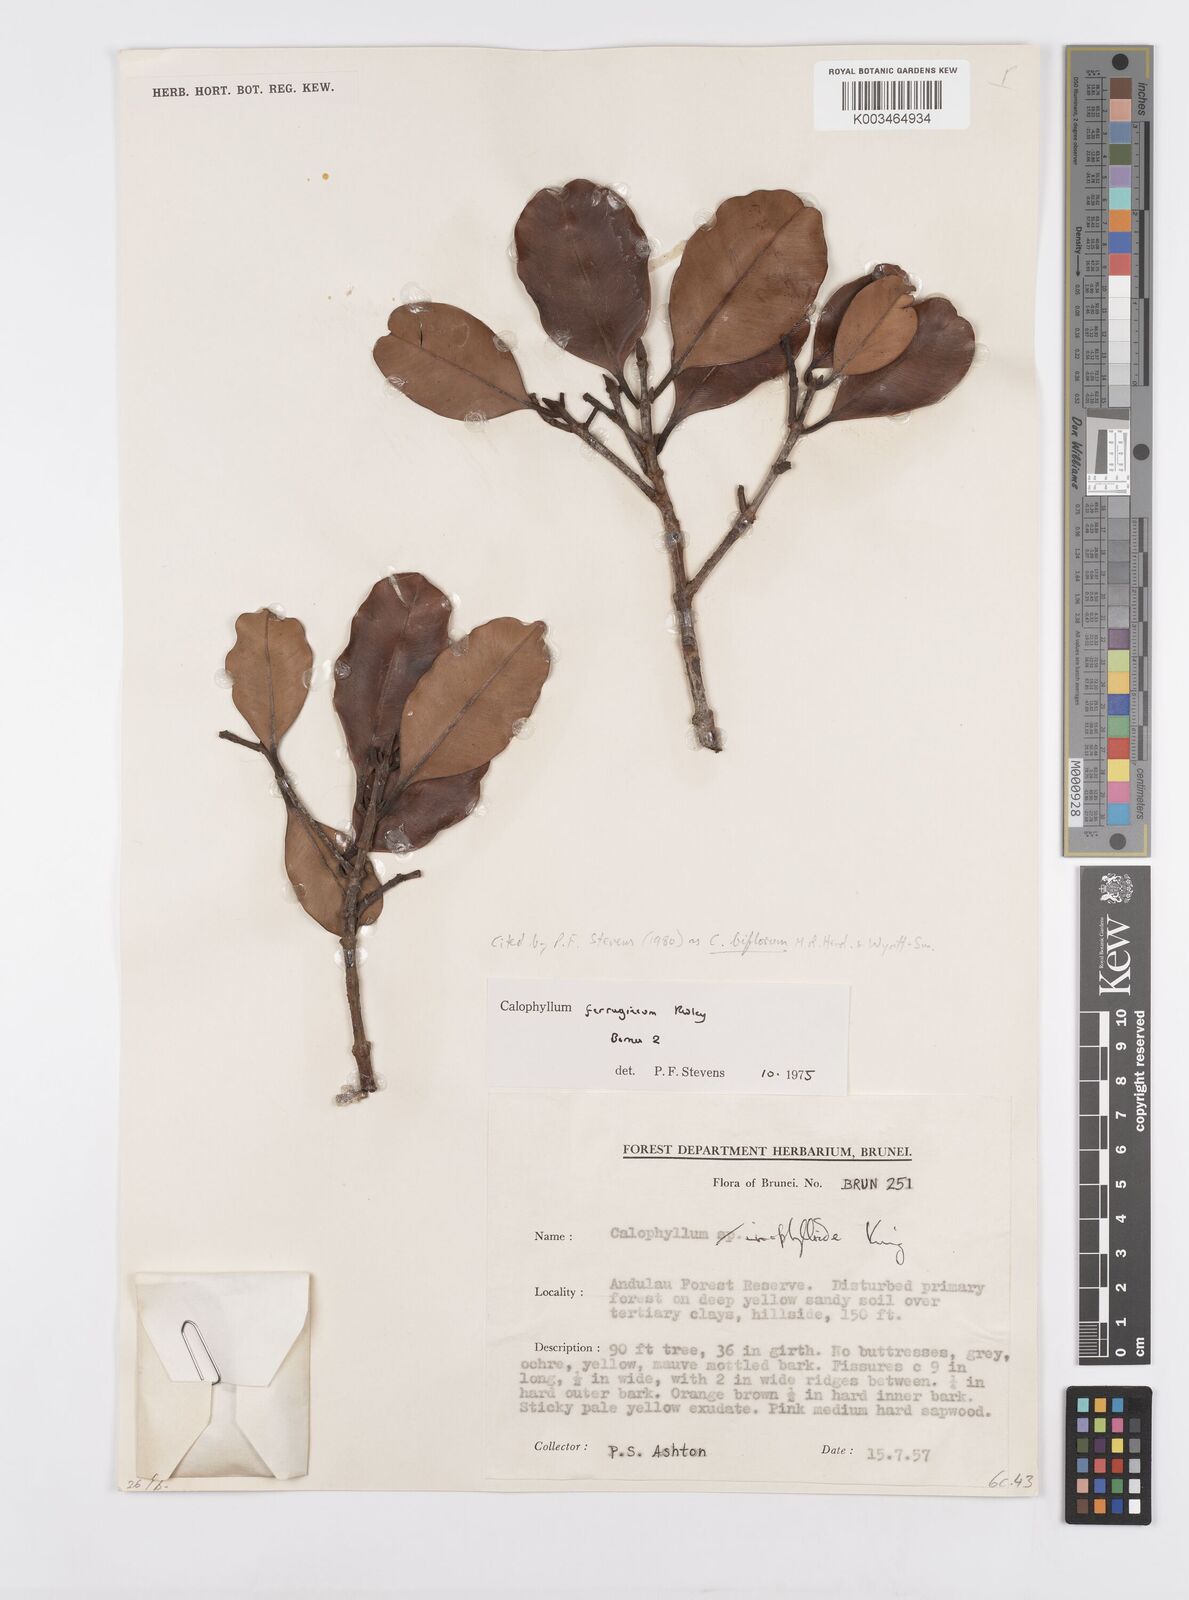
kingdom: Plantae
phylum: Tracheophyta
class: Magnoliopsida
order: Malpighiales
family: Calophyllaceae
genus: Calophyllum
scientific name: Calophyllum biflorum
